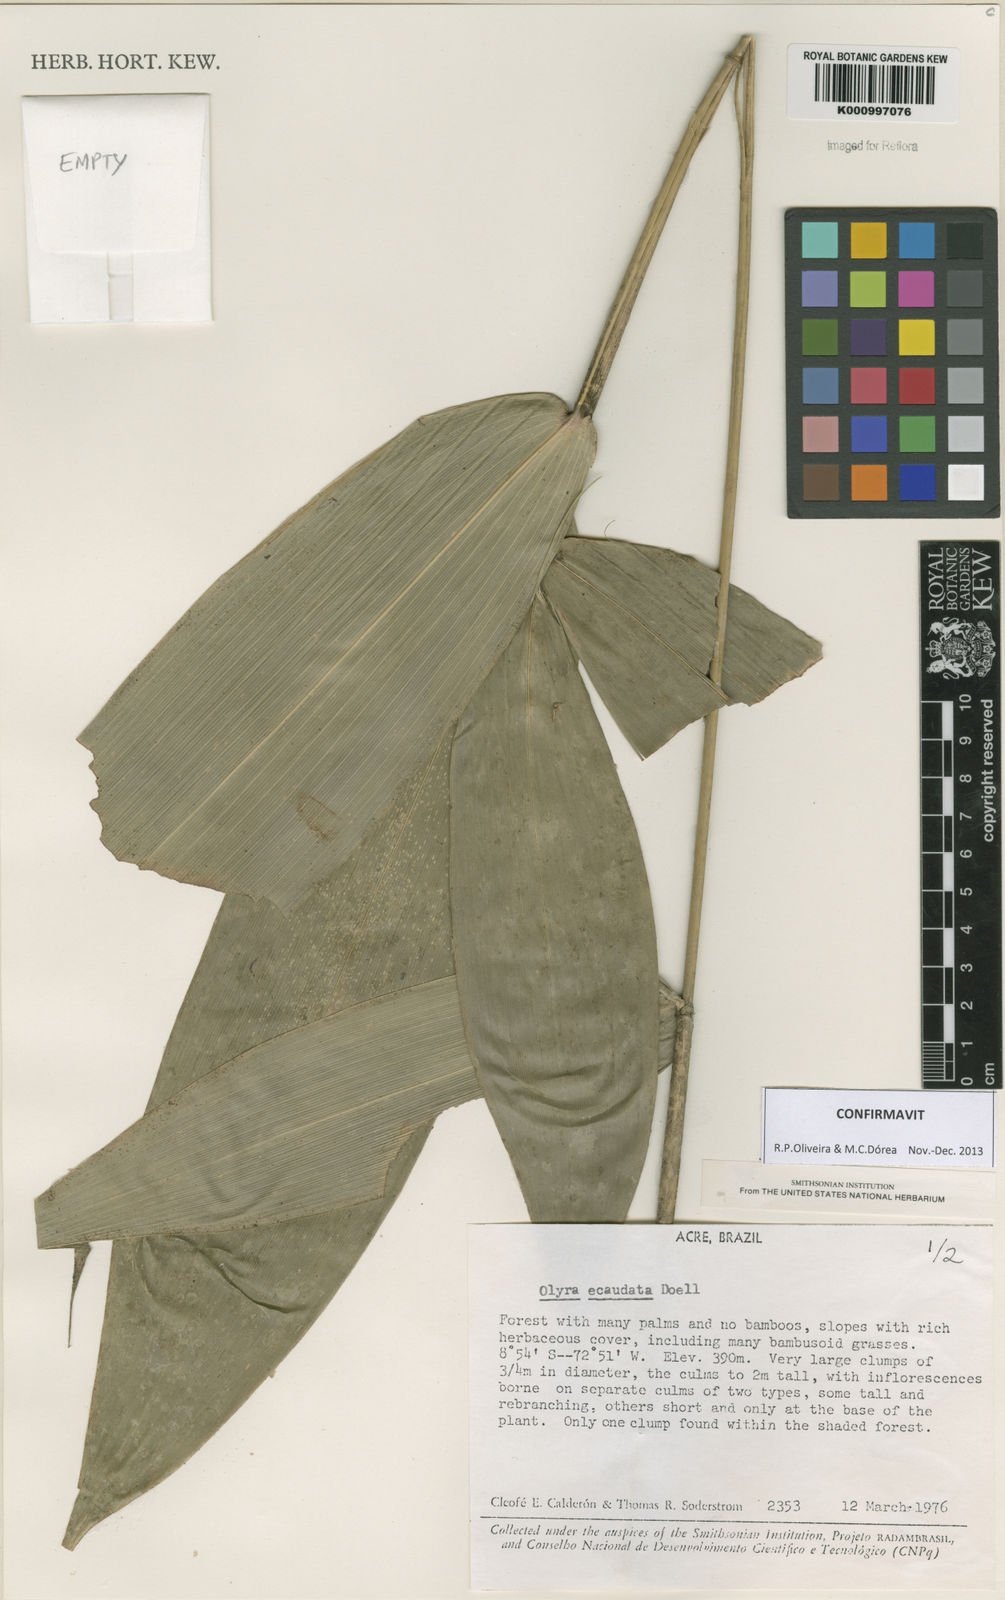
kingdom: Plantae
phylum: Tracheophyta
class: Liliopsida
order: Poales
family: Poaceae
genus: Olyra
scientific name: Olyra
